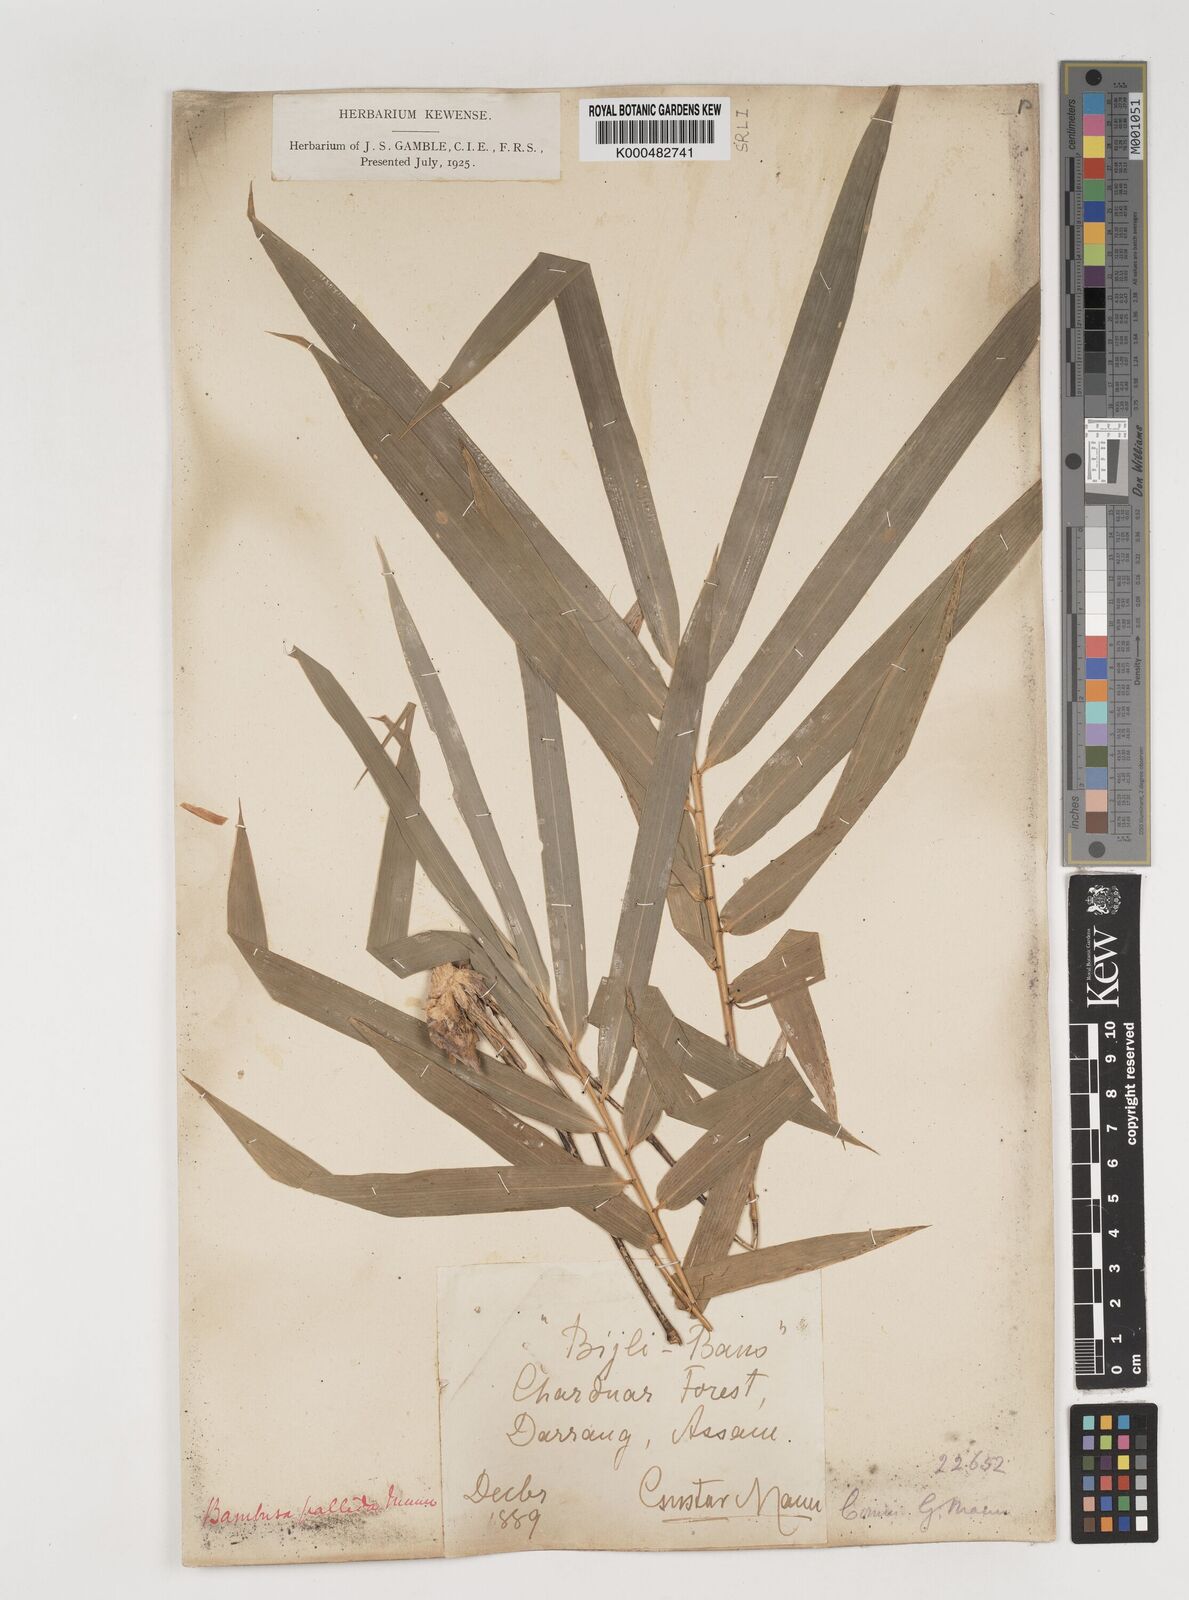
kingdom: Plantae
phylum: Tracheophyta
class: Liliopsida
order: Poales
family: Poaceae
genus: Bambusa
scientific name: Bambusa pallida
